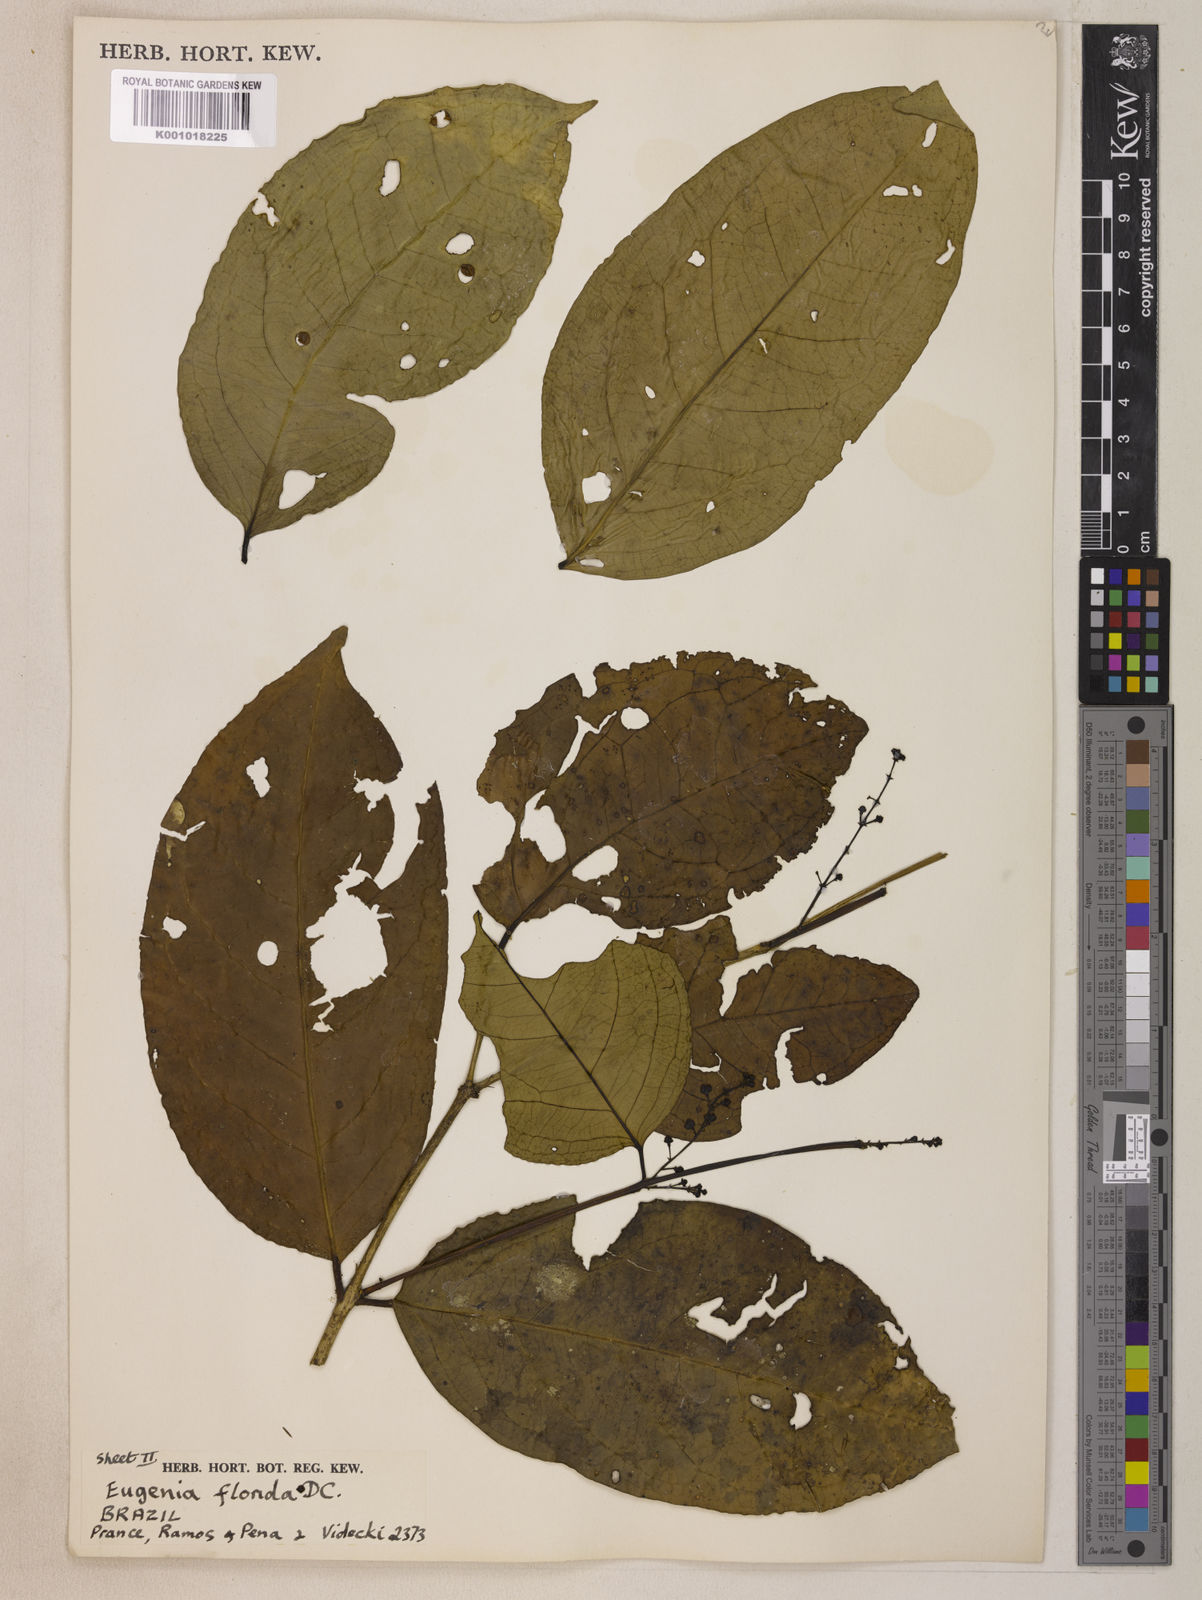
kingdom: Plantae
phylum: Tracheophyta
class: Magnoliopsida
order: Myrtales
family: Myrtaceae
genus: Eugenia
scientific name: Eugenia florida
